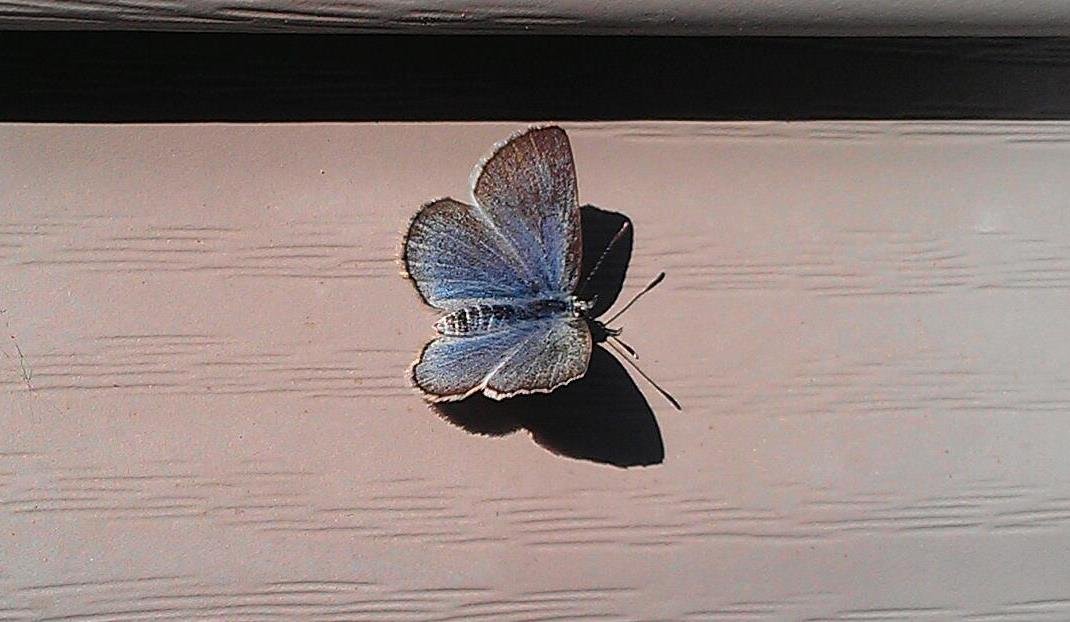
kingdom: Animalia
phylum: Arthropoda
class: Insecta
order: Lepidoptera
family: Lycaenidae
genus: Glaucopsyche
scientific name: Glaucopsyche lygdamus
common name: Silvery Blue
